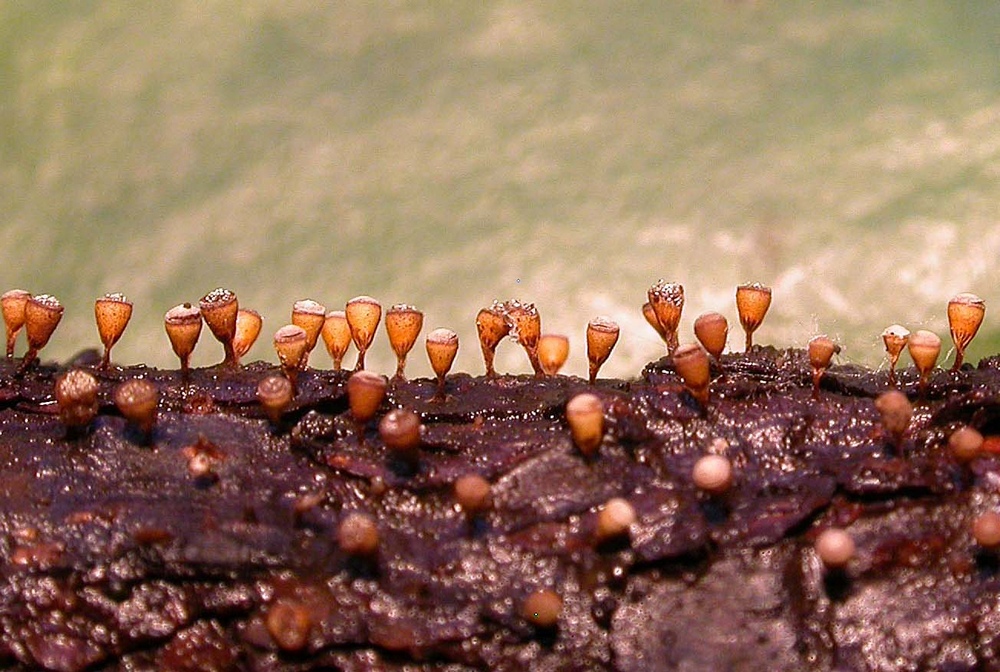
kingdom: Protozoa
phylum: Mycetozoa
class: Myxomycetes
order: Physarales
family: Physaraceae
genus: Craterium
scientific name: Craterium minutum
